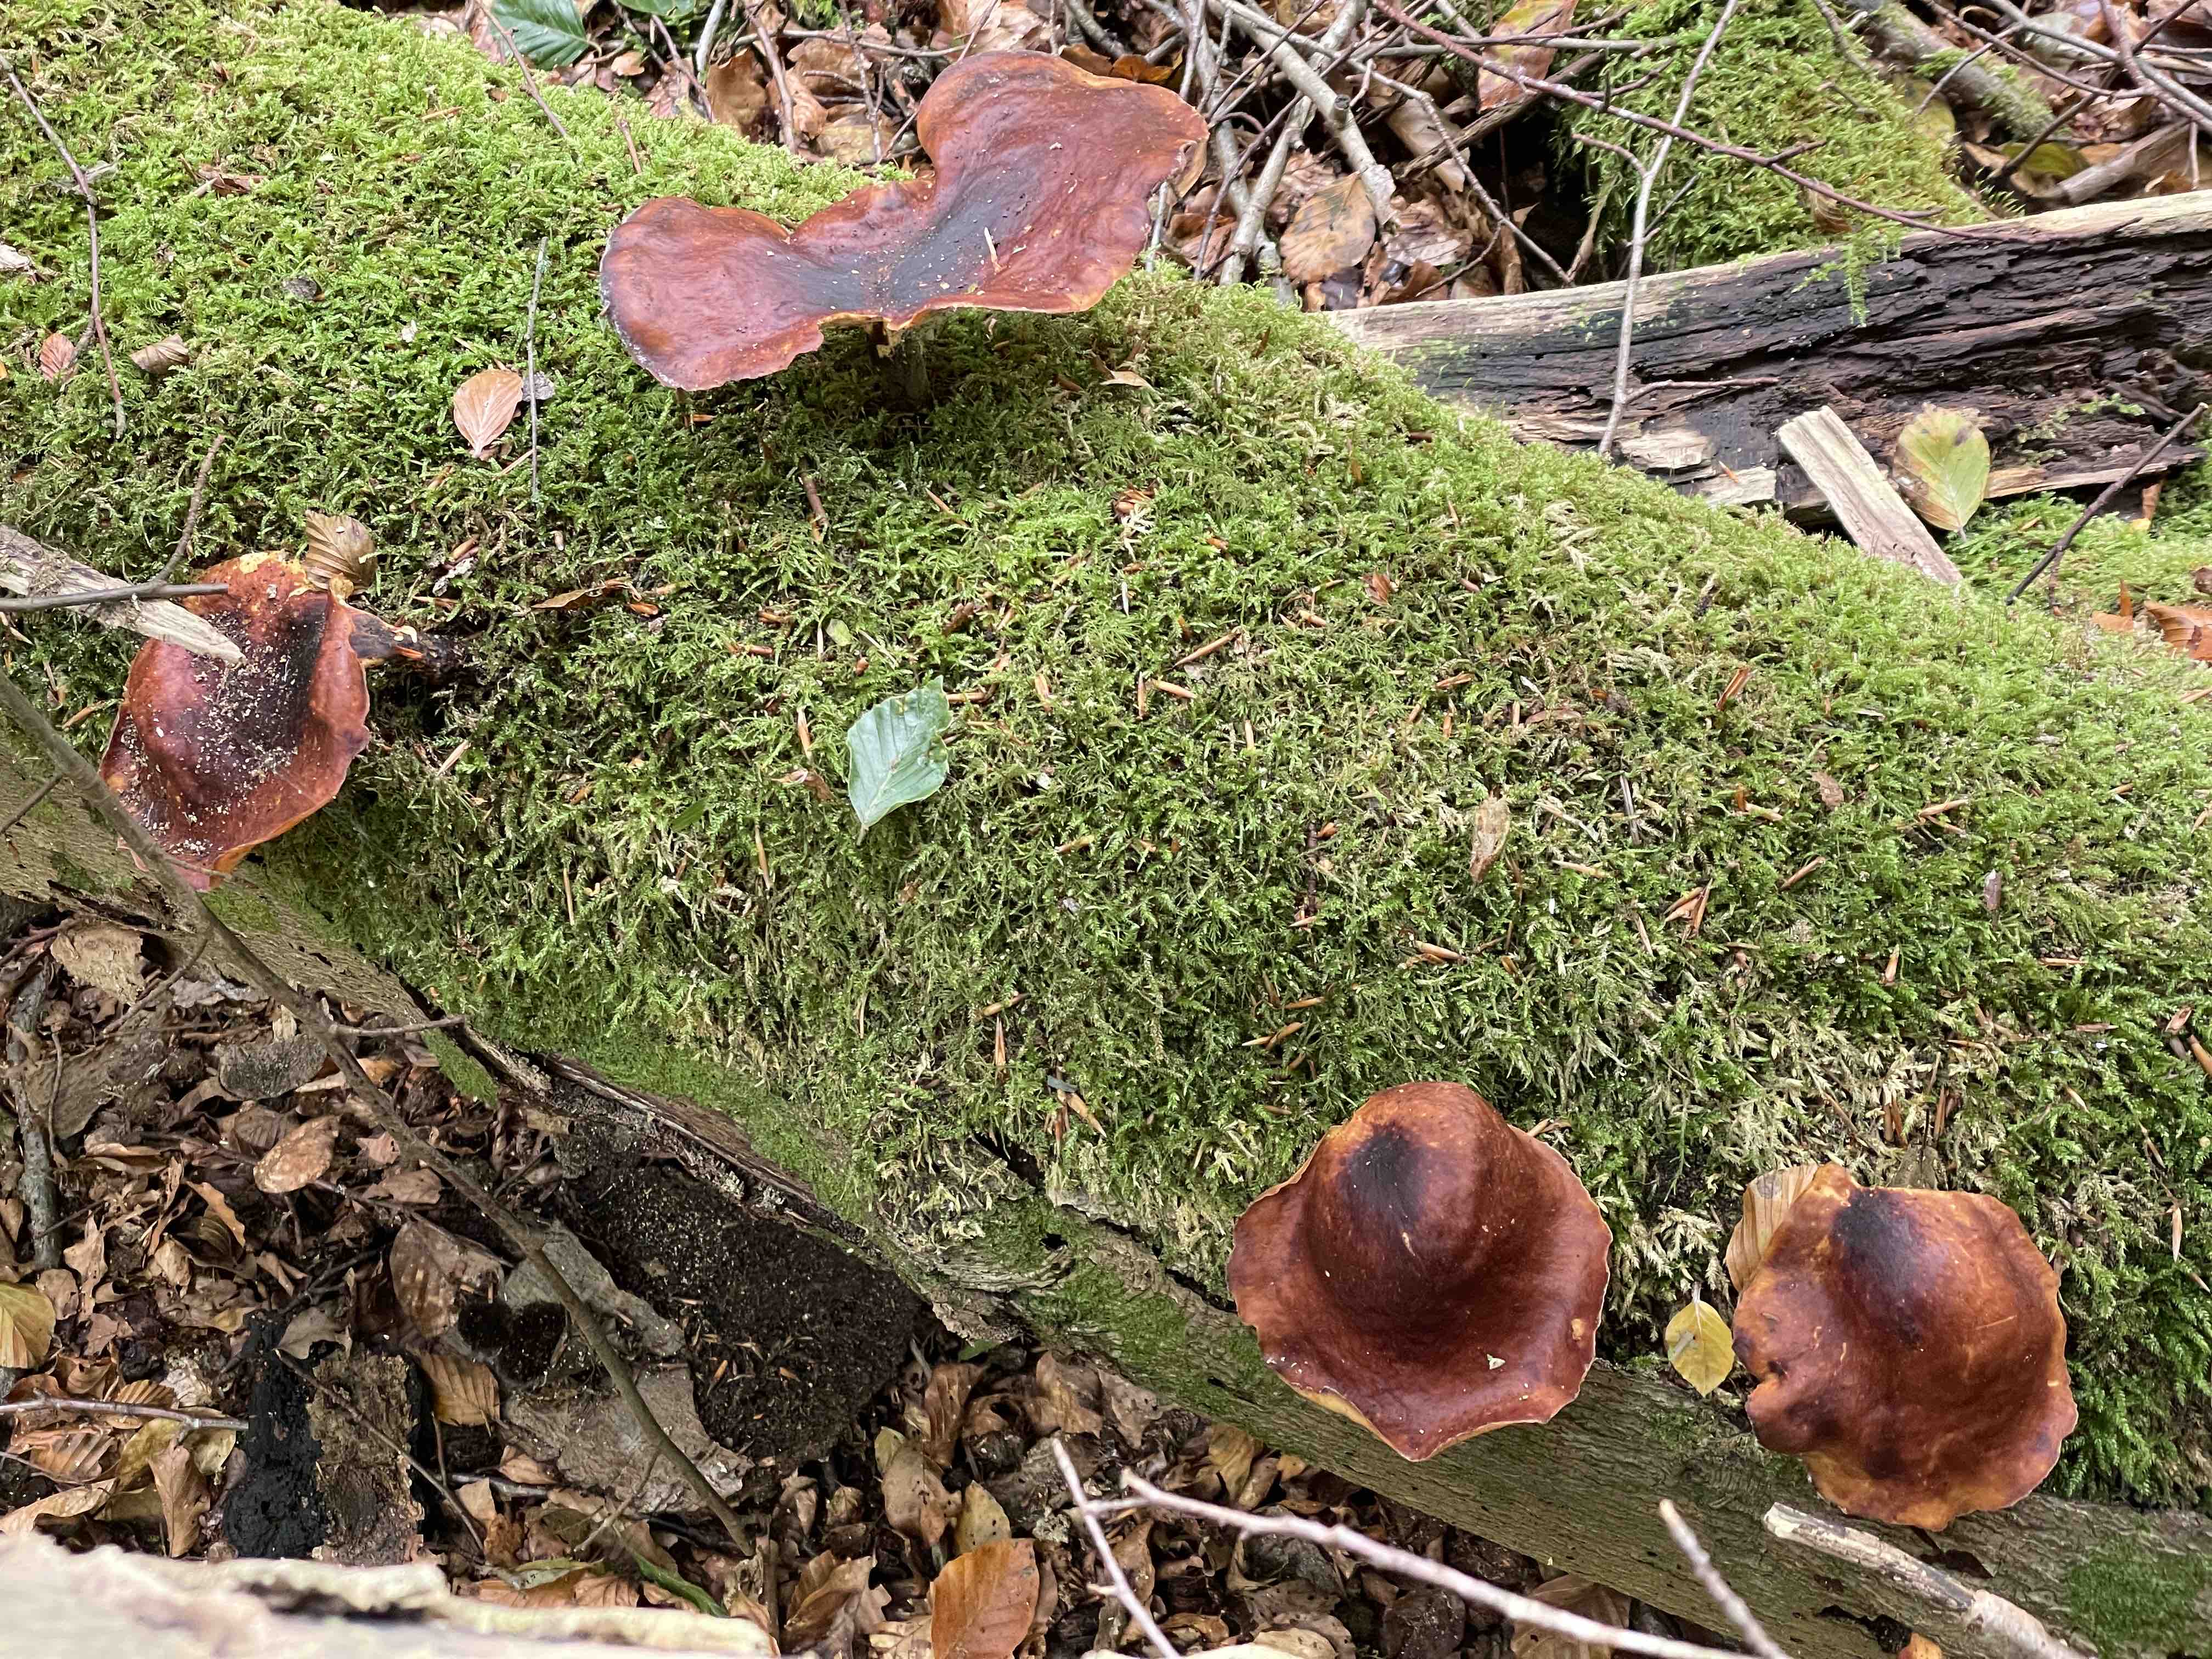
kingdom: Fungi
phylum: Basidiomycota
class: Agaricomycetes
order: Polyporales
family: Polyporaceae
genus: Picipes
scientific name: Picipes badius
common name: kastaniebrun stilkporesvamp
